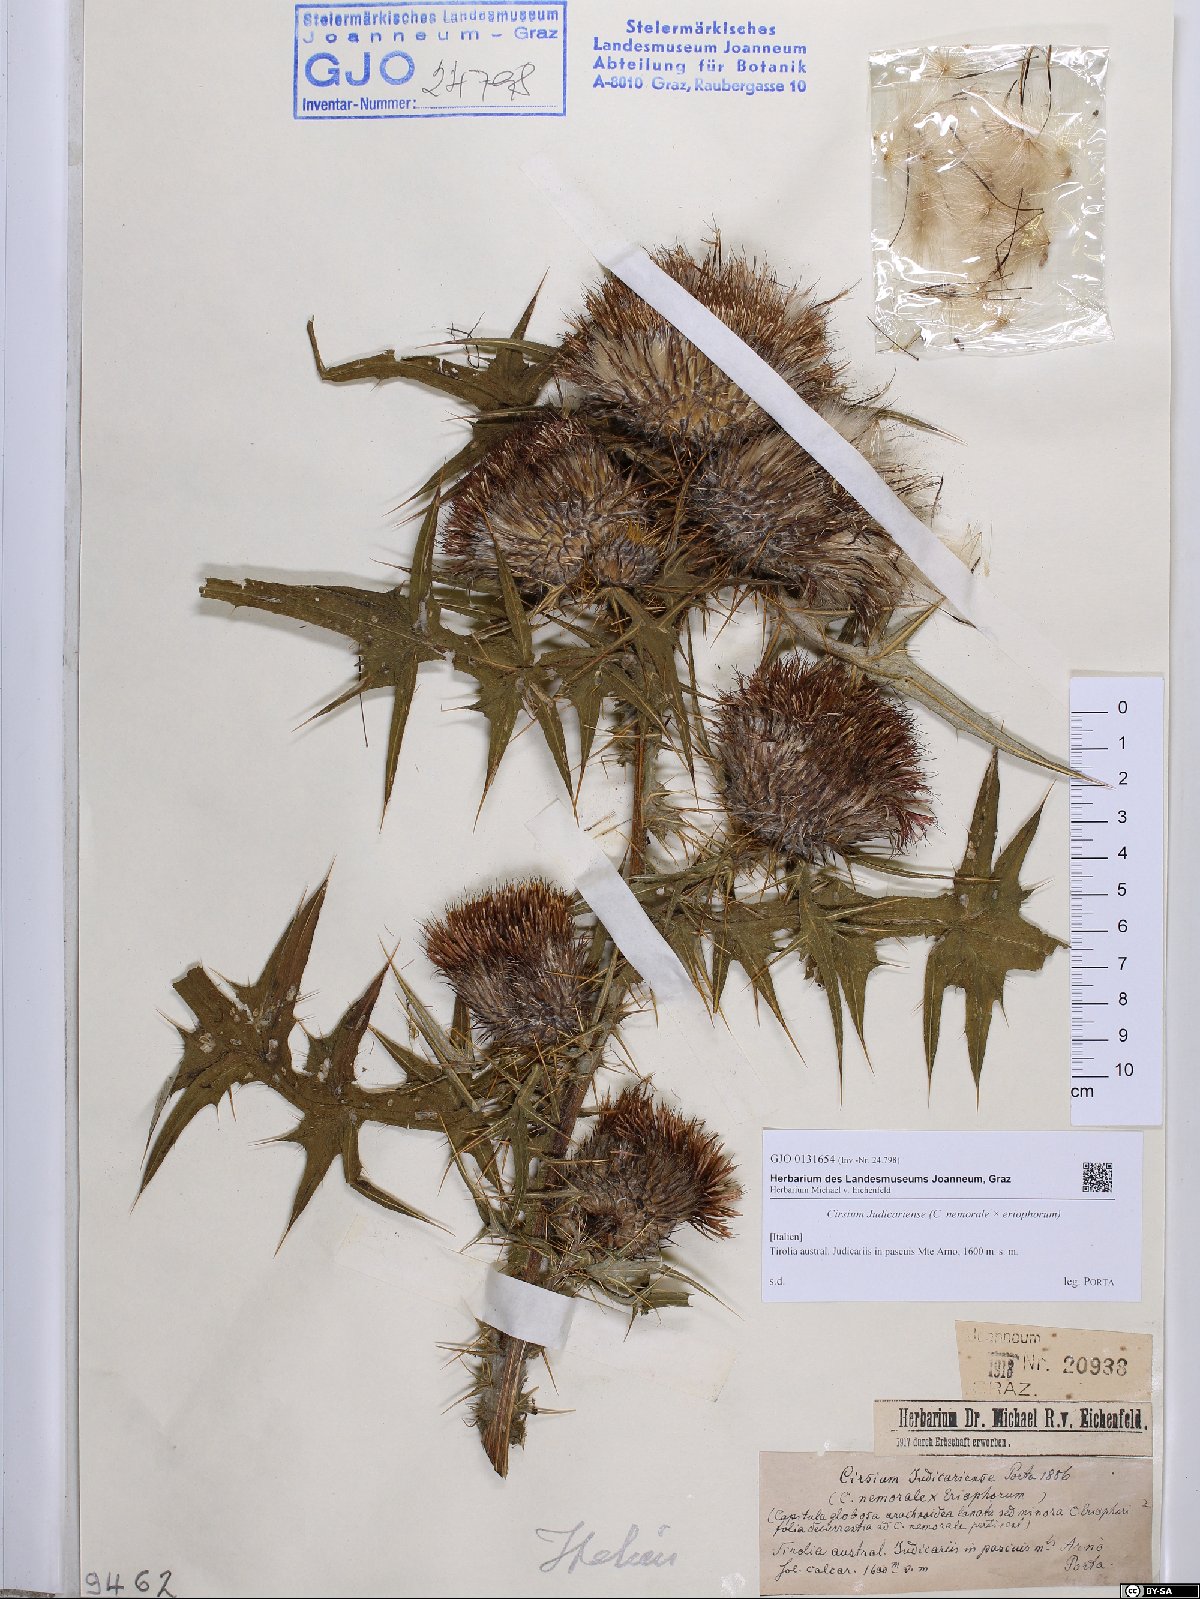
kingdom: Plantae
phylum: Tracheophyta
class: Magnoliopsida
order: Asterales
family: Asteraceae
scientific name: Asteraceae
